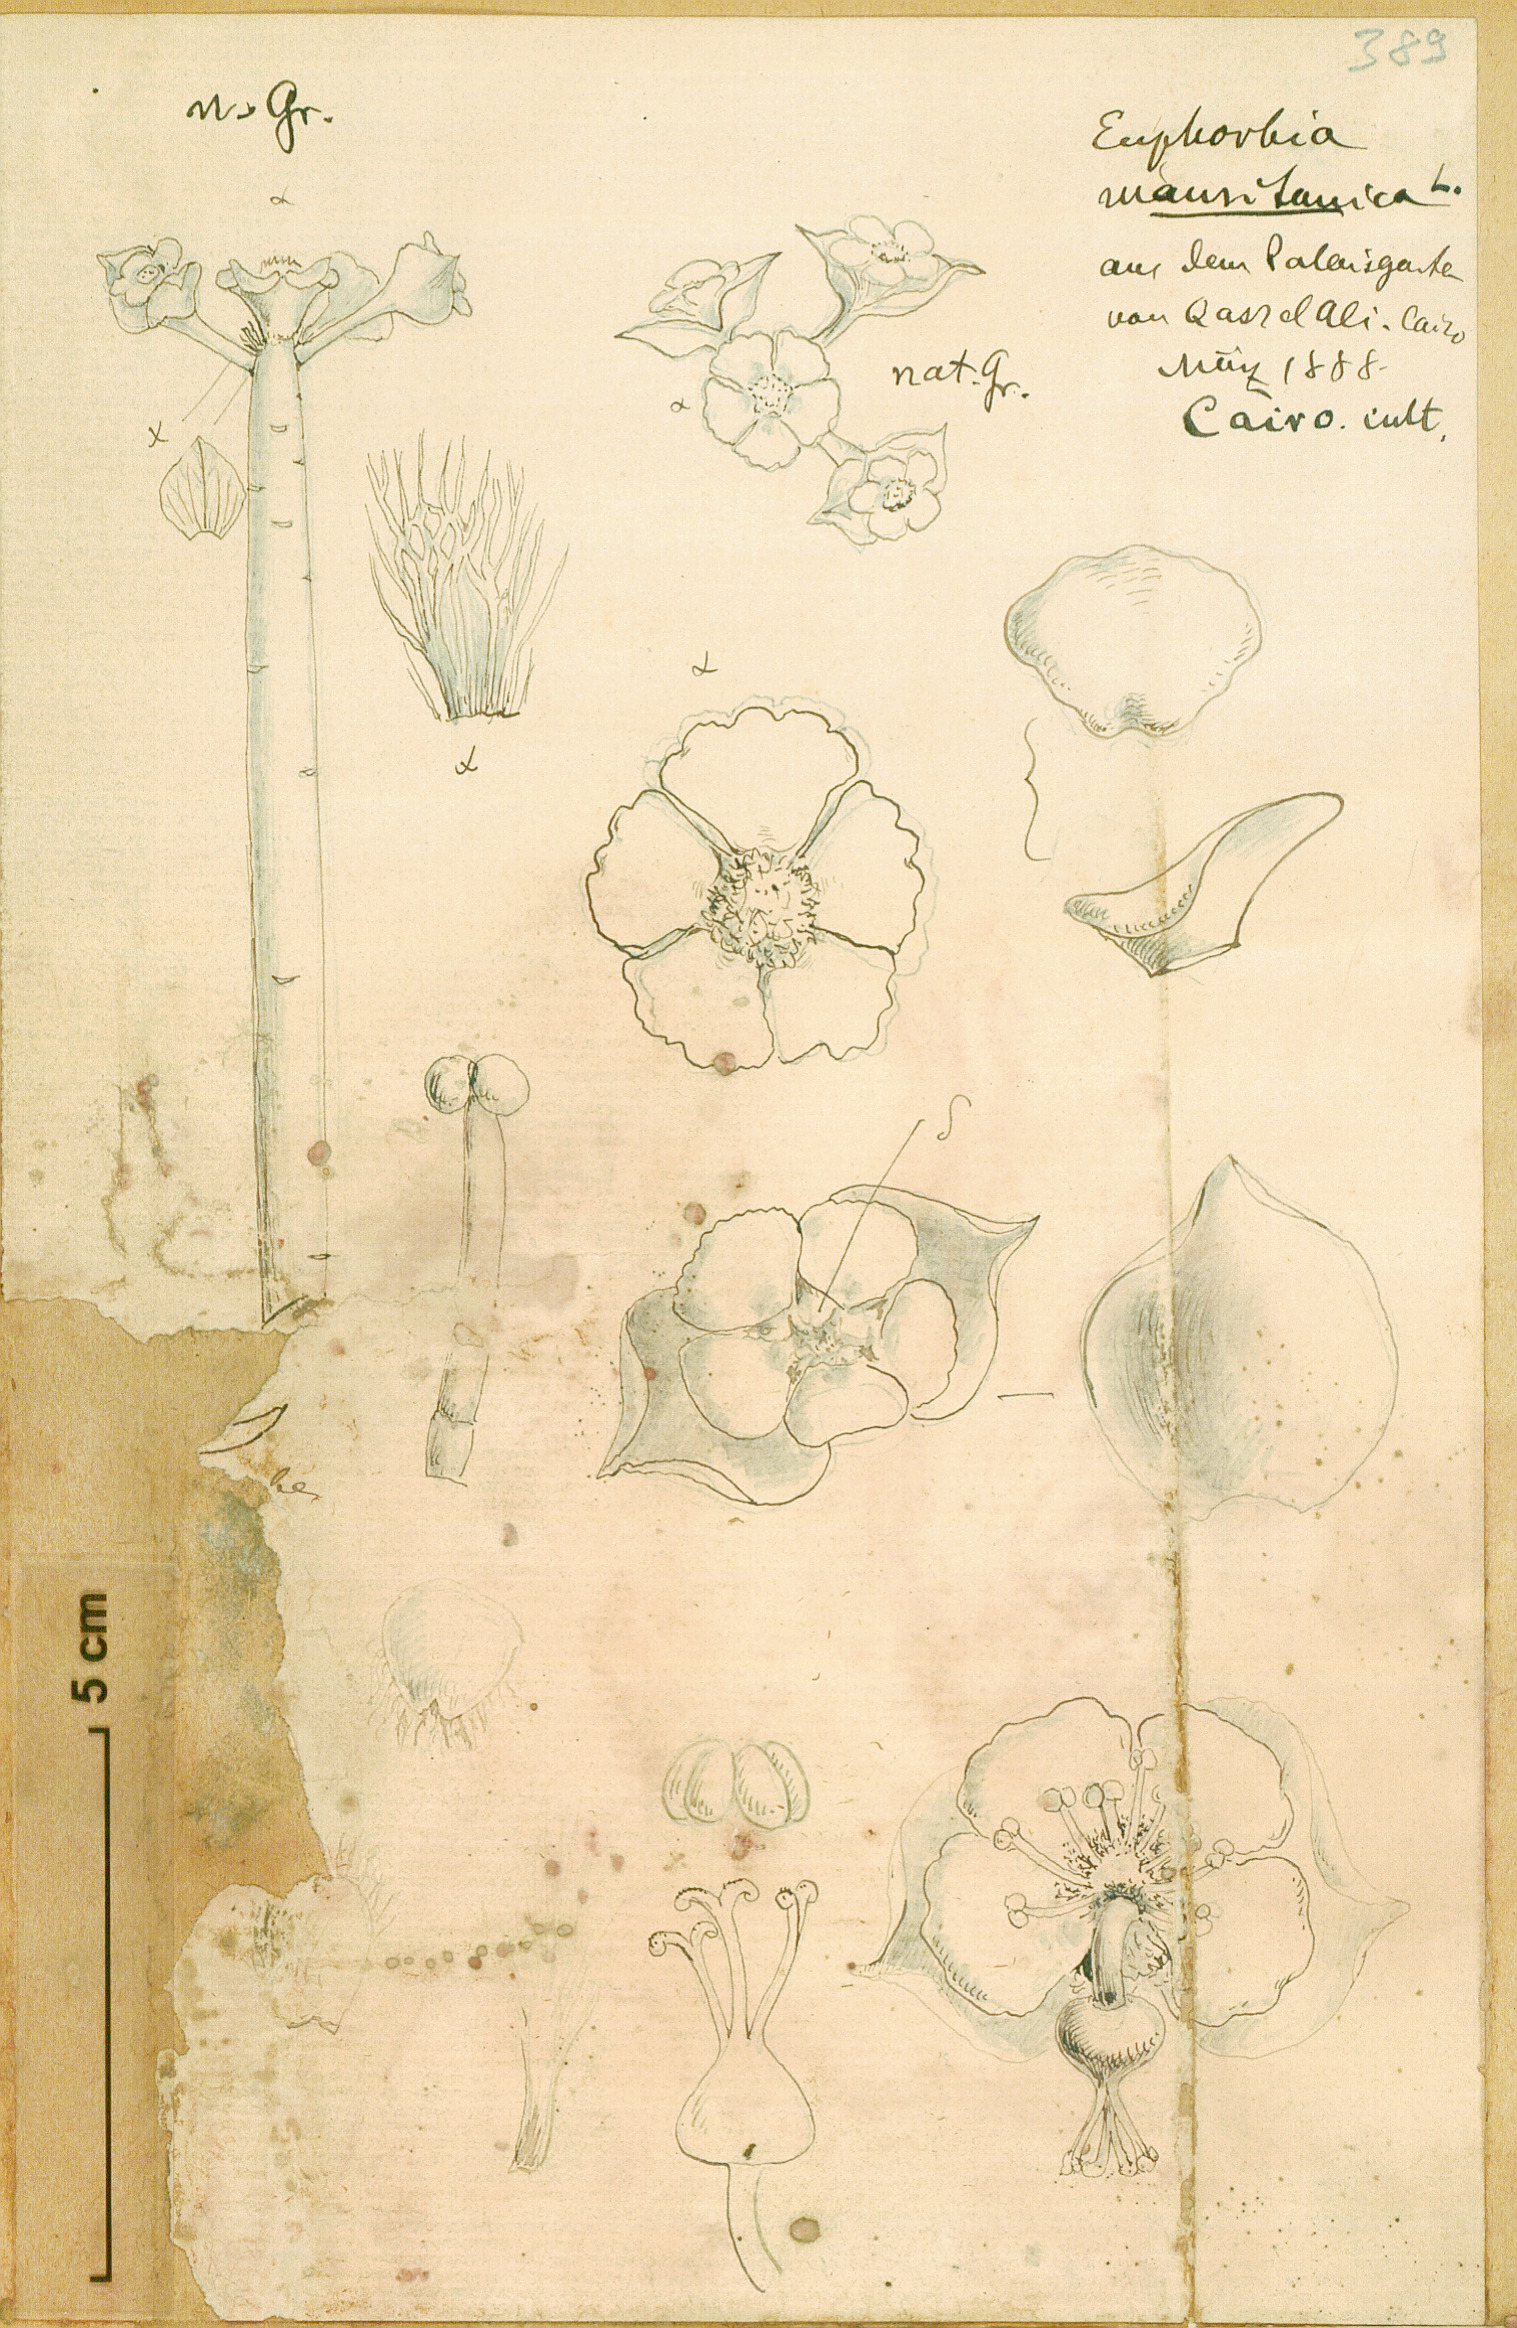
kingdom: Plantae
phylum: Tracheophyta
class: Magnoliopsida
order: Malpighiales
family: Euphorbiaceae
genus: Euphorbia
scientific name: Euphorbia mauritanica
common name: Jackal's-food
